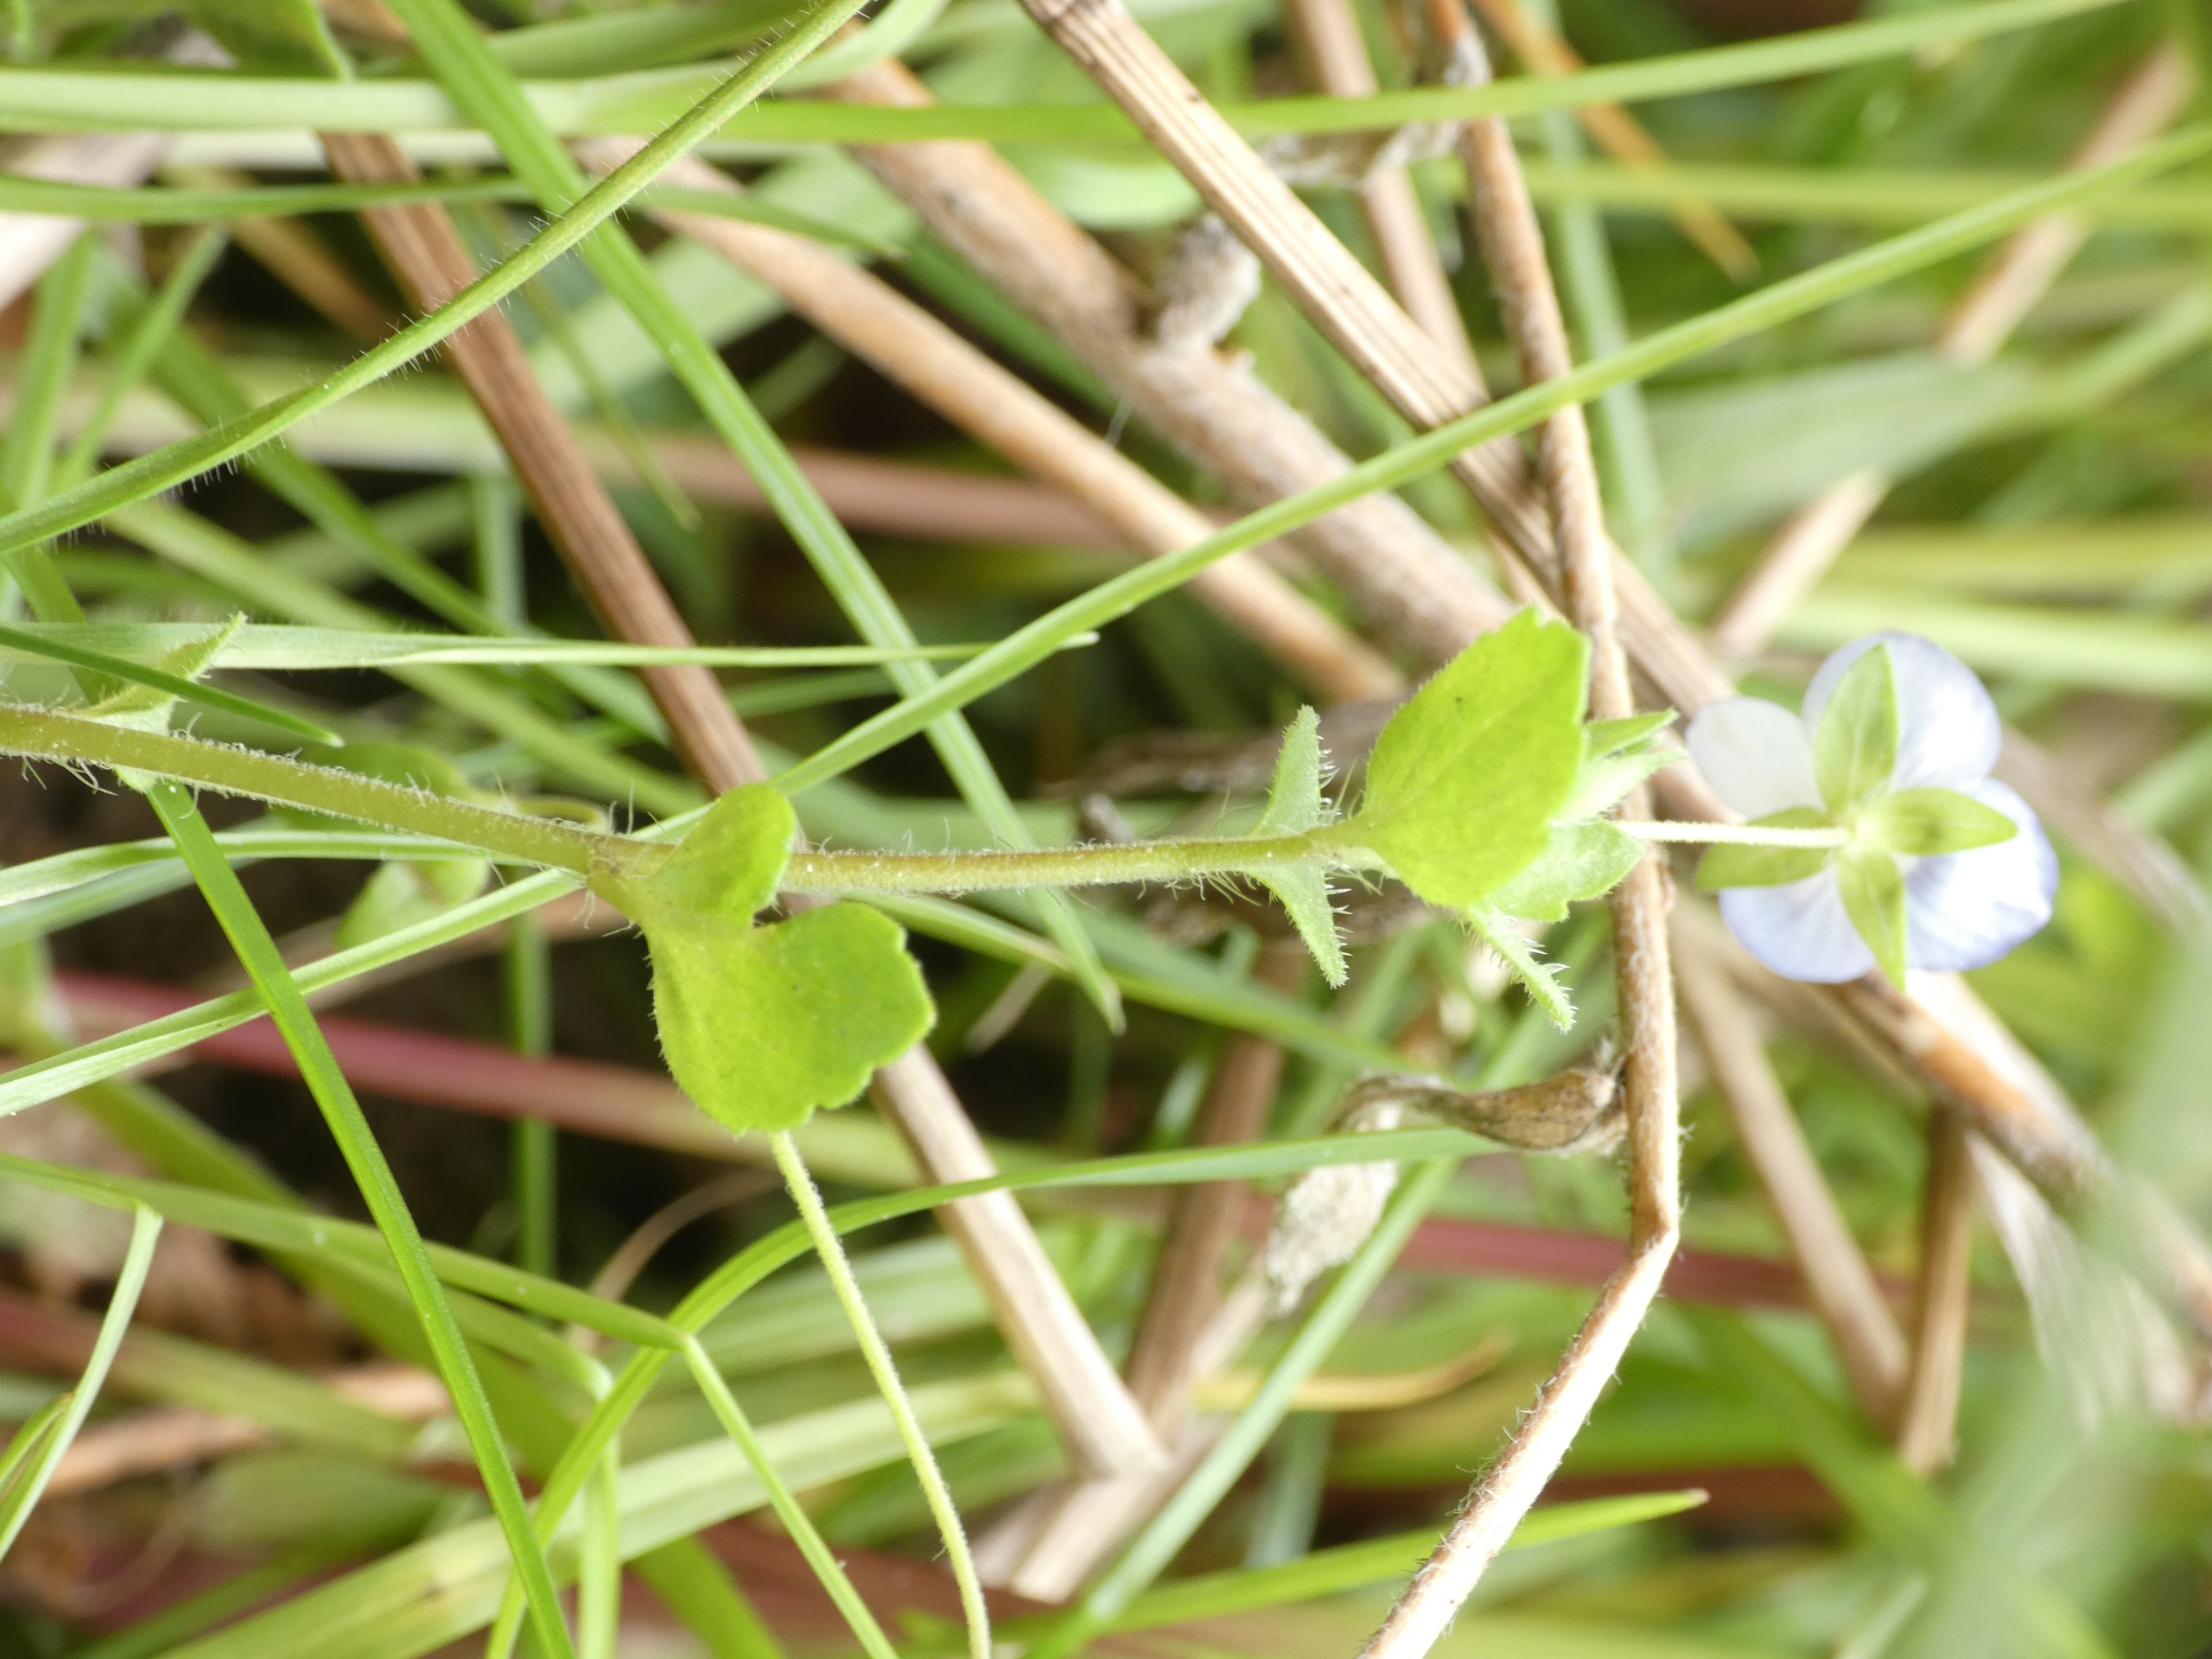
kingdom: Plantae
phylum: Tracheophyta
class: Magnoliopsida
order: Lamiales
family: Plantaginaceae
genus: Veronica
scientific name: Veronica persica
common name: Storkronet ærenpris
